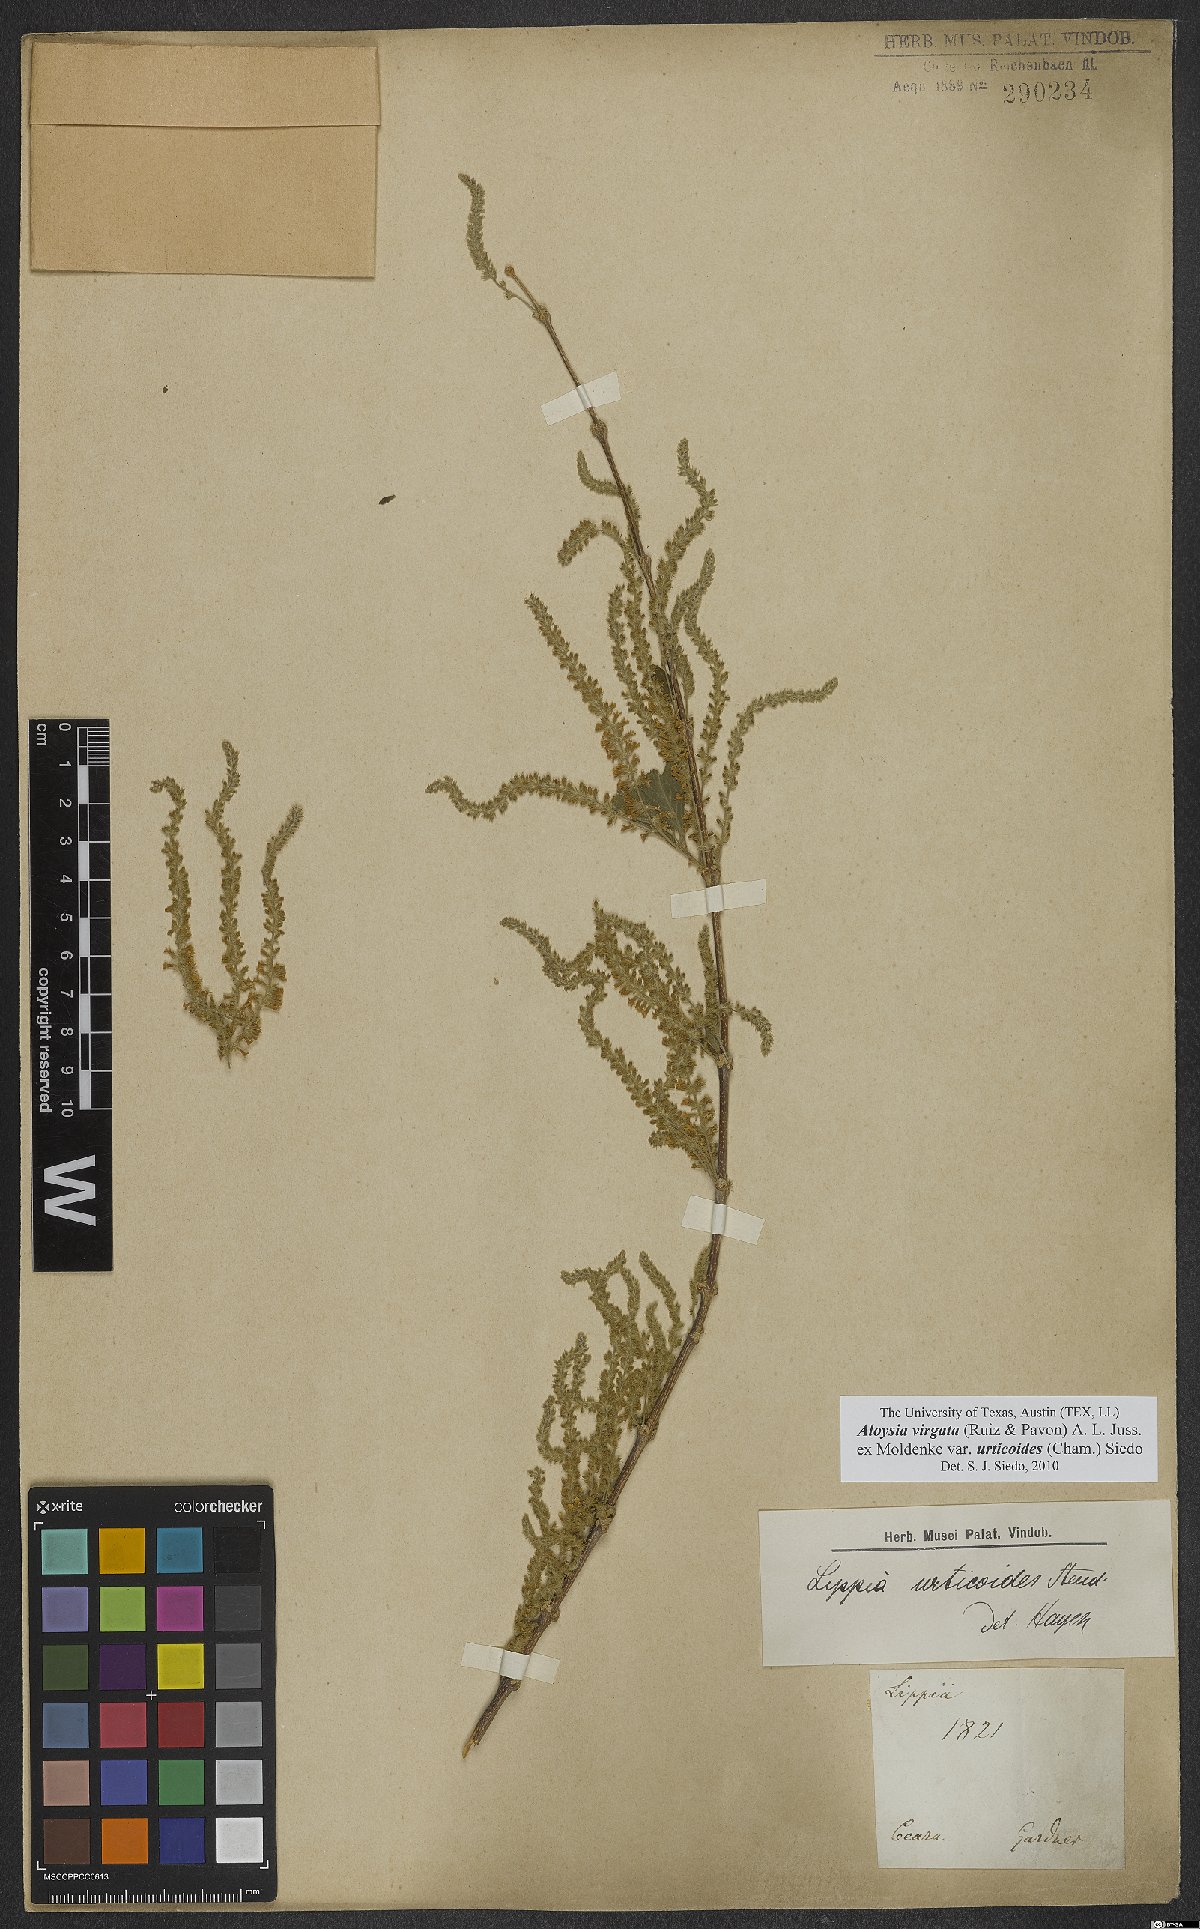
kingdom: Plantae
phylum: Tracheophyta
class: Magnoliopsida
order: Lamiales
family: Verbenaceae
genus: Aloysia
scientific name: Aloysia virgata
